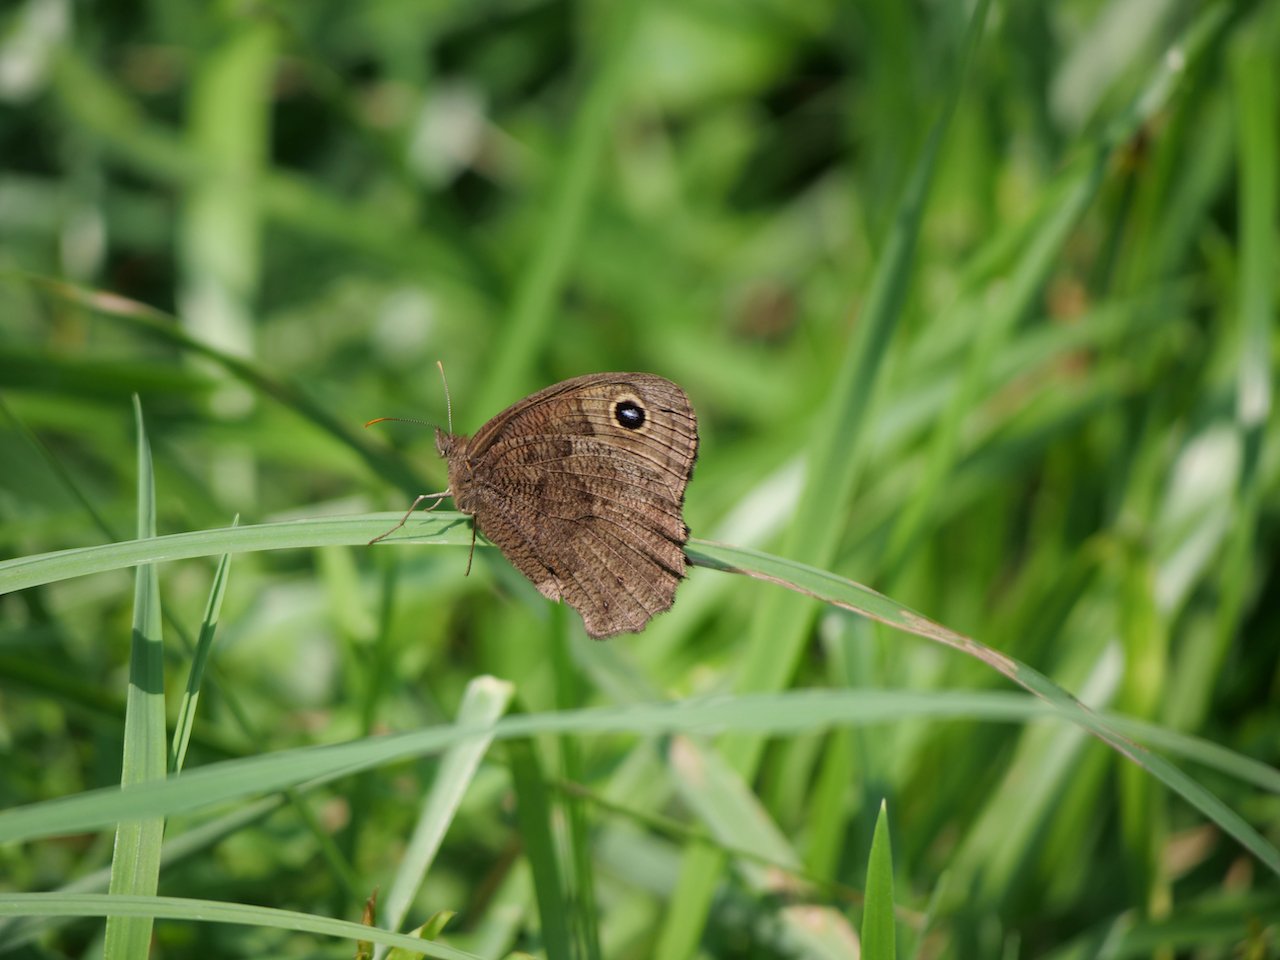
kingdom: Animalia
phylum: Arthropoda
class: Insecta
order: Lepidoptera
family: Nymphalidae
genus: Cercyonis
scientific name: Cercyonis pegala
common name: Common Wood-Nymph
